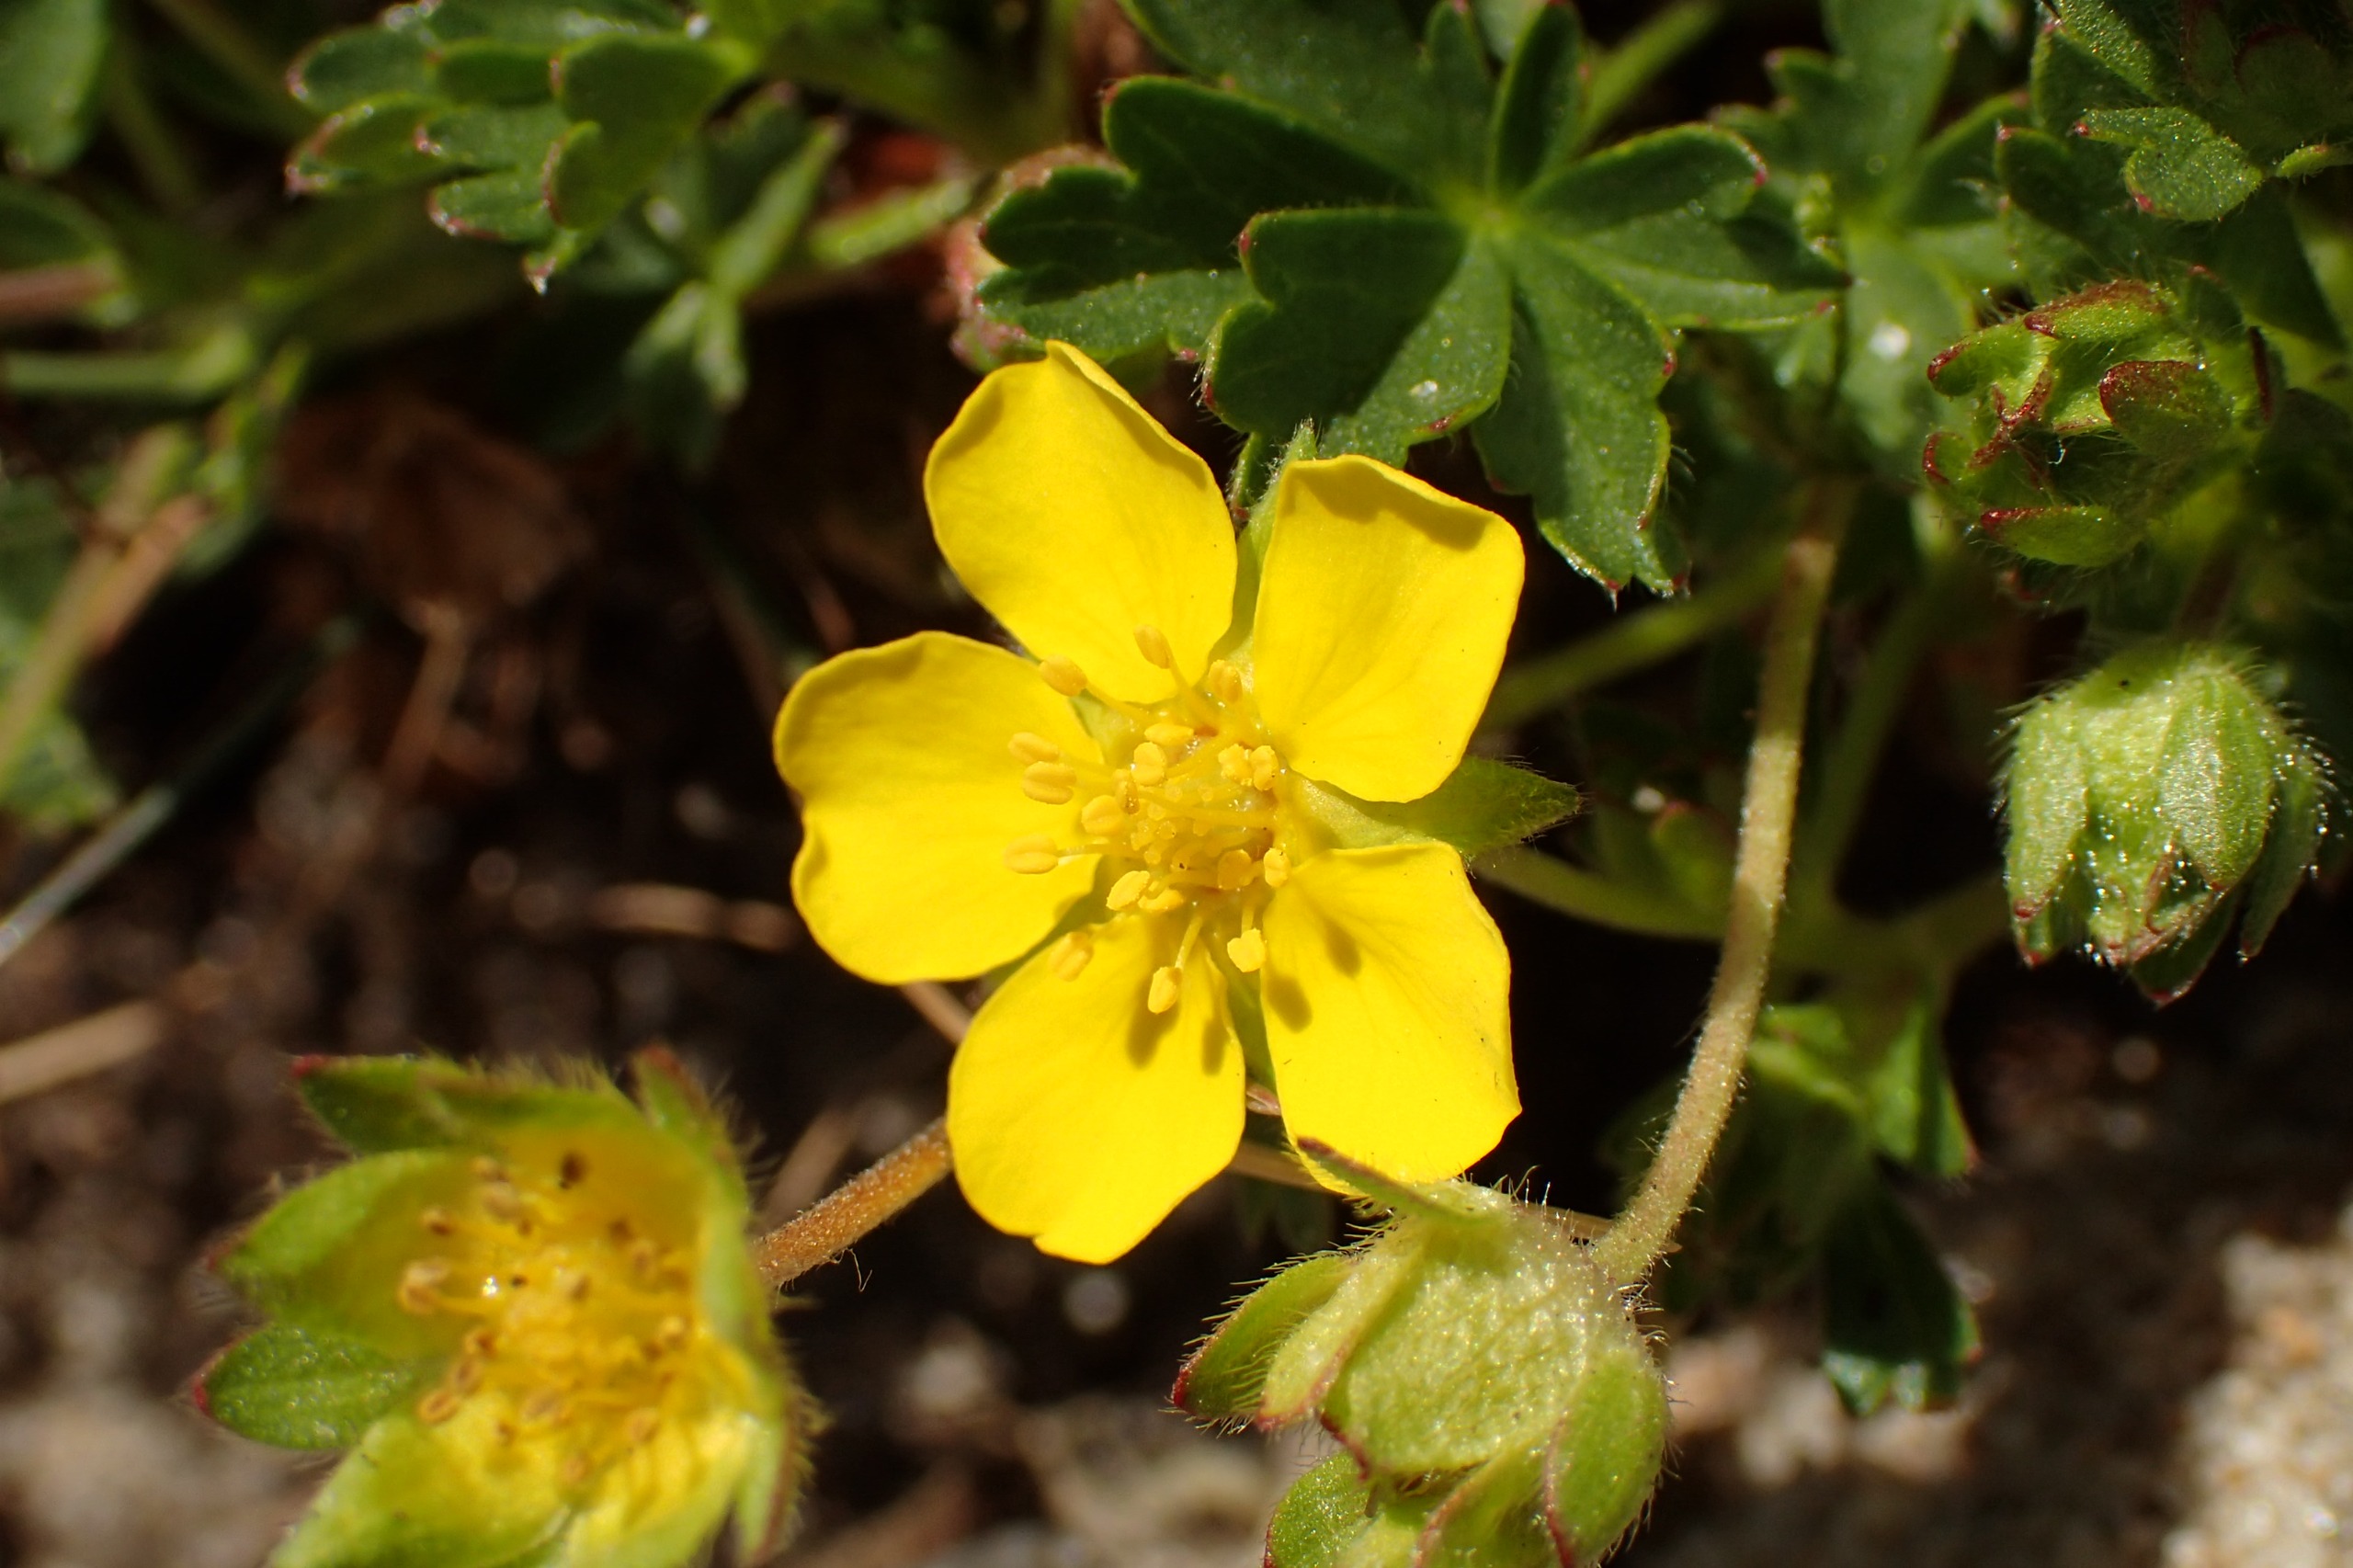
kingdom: Plantae
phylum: Tracheophyta
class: Magnoliopsida
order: Rosales
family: Rosaceae
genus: Potentilla
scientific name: Potentilla verna
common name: Vår-potentil
